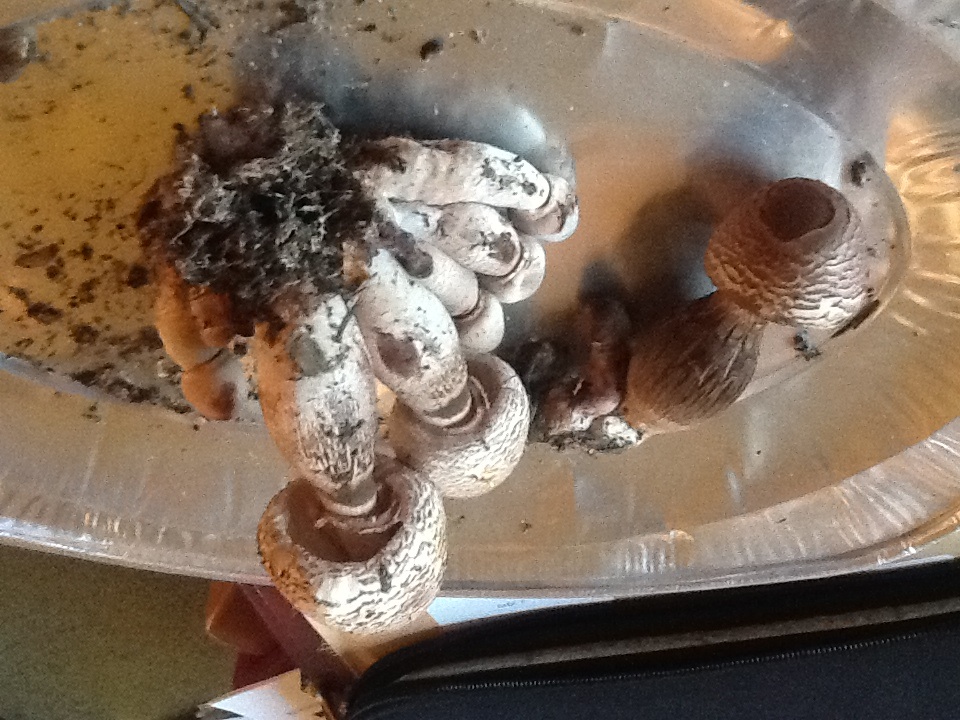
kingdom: Fungi
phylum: Basidiomycota
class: Agaricomycetes
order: Agaricales
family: Agaricaceae
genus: Leucoagaricus
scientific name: Leucoagaricus americanus
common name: stor silkehat
